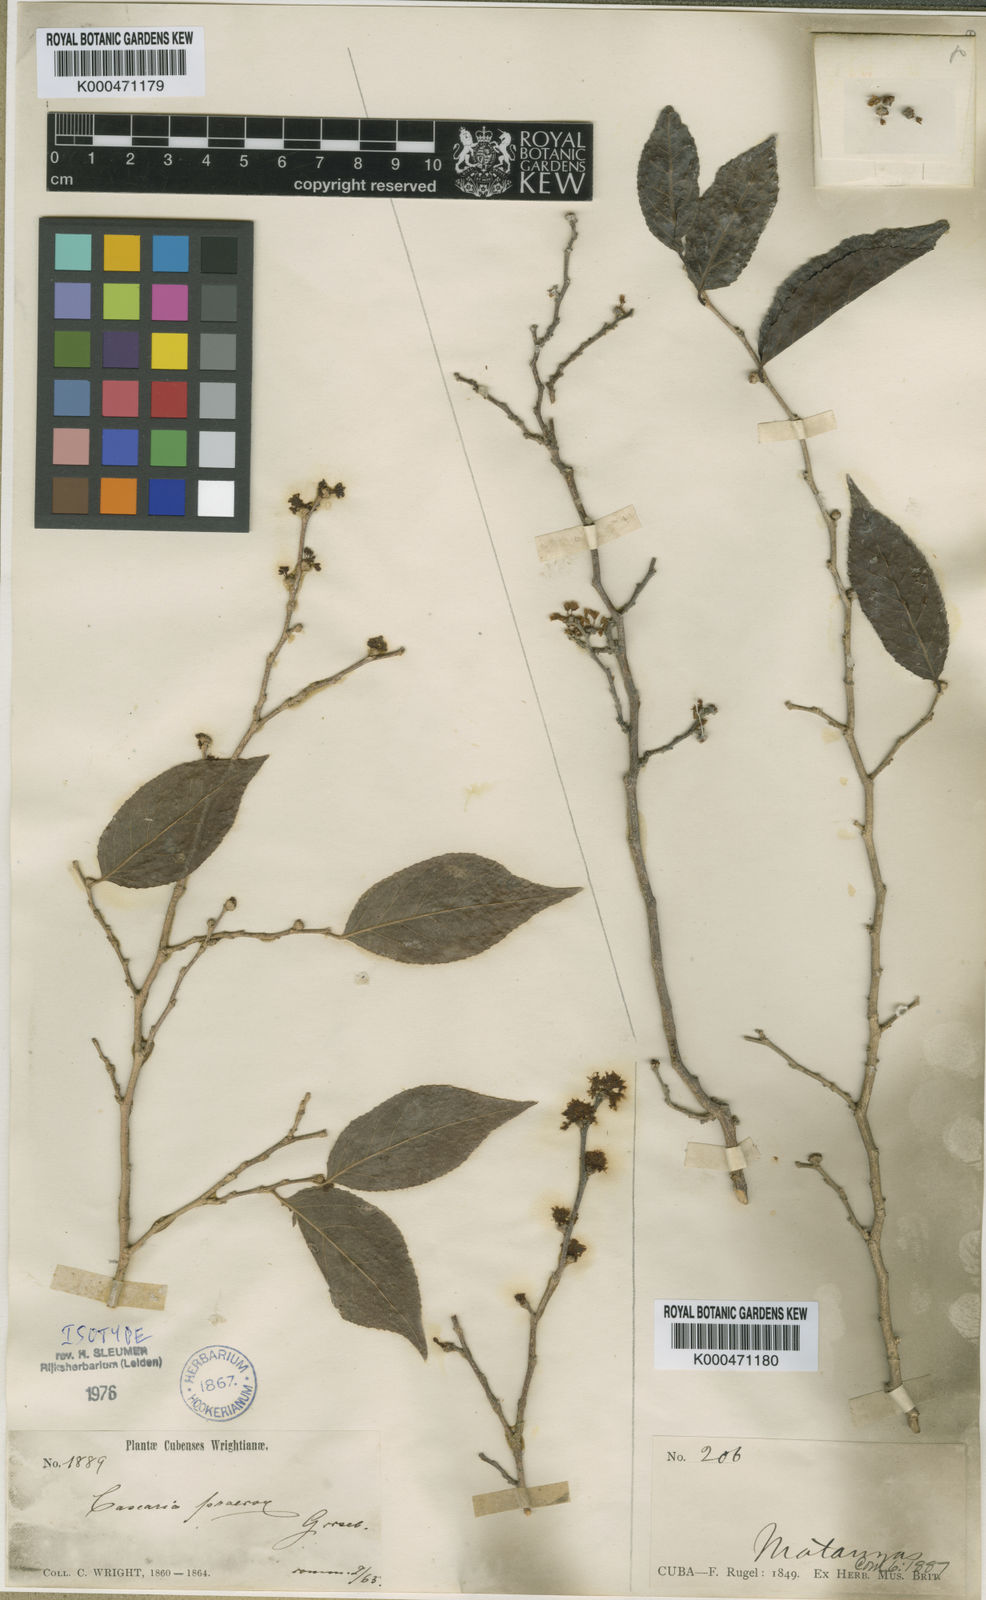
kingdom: Plantae
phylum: Tracheophyta
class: Magnoliopsida
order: Malpighiales
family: Salicaceae
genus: Casearia
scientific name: Casearia praecox
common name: Maracaibo-boxwood
